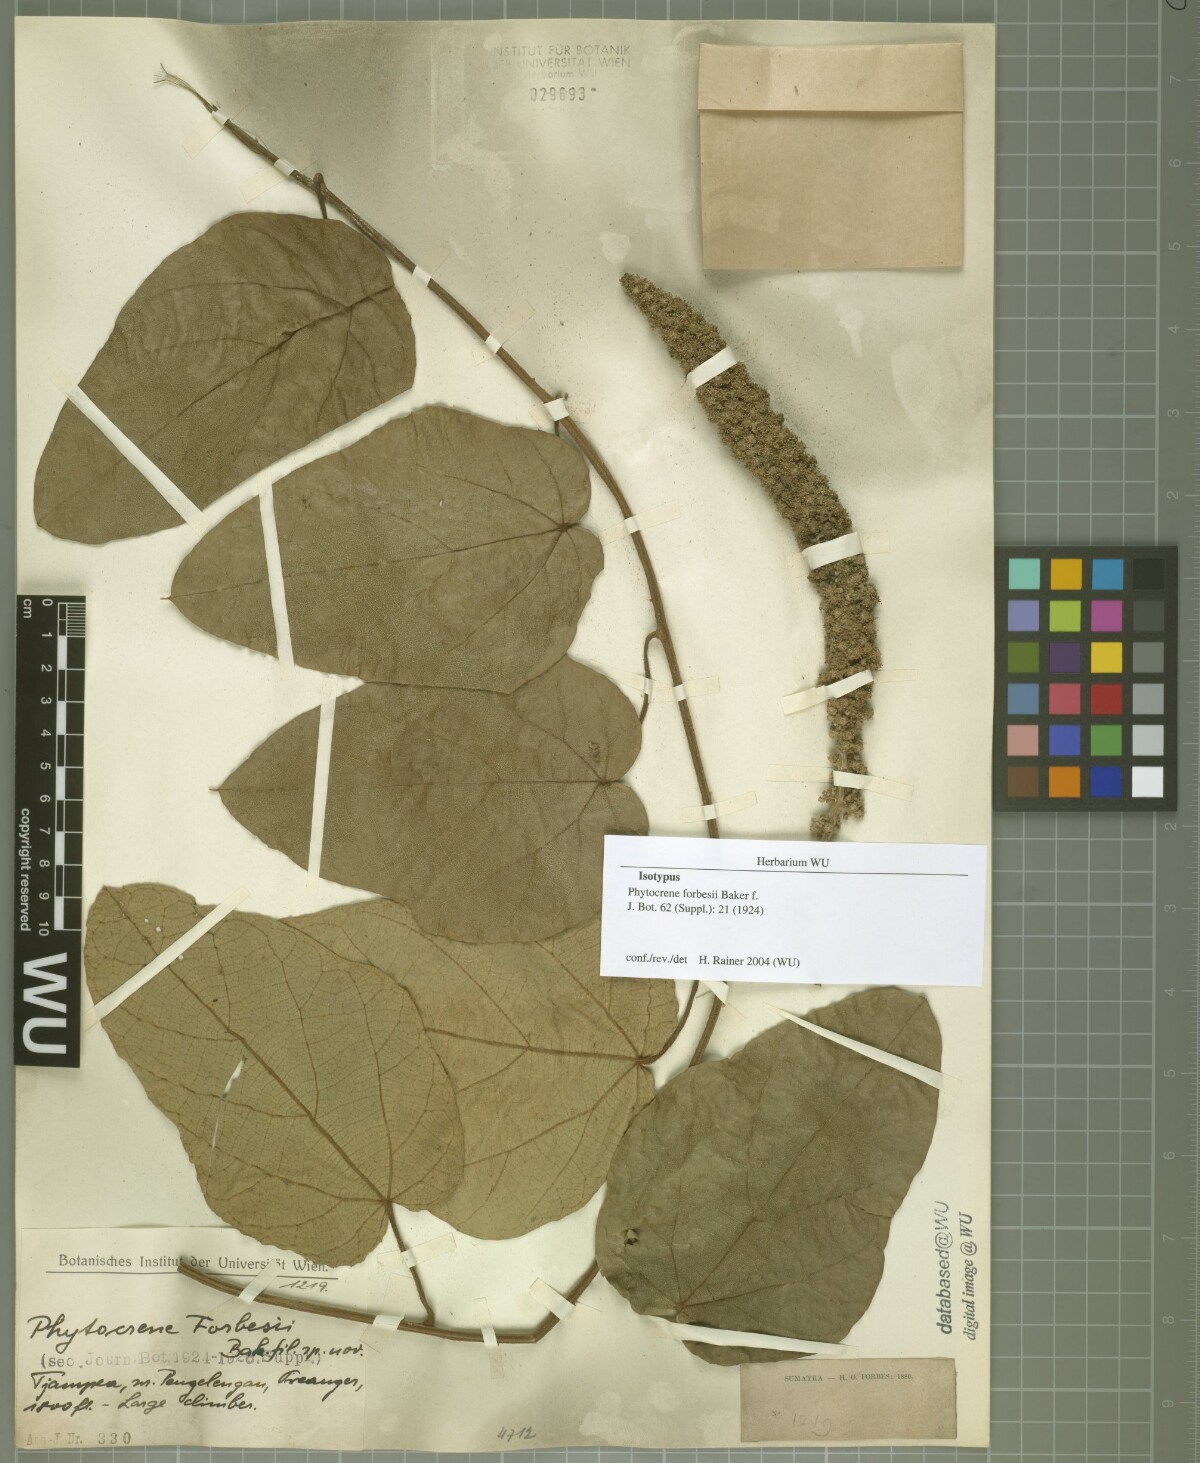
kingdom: Plantae
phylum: Tracheophyta
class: Magnoliopsida
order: Icacinales
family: Icacinaceae
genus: Phytocrene
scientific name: Phytocrene macrophylla
